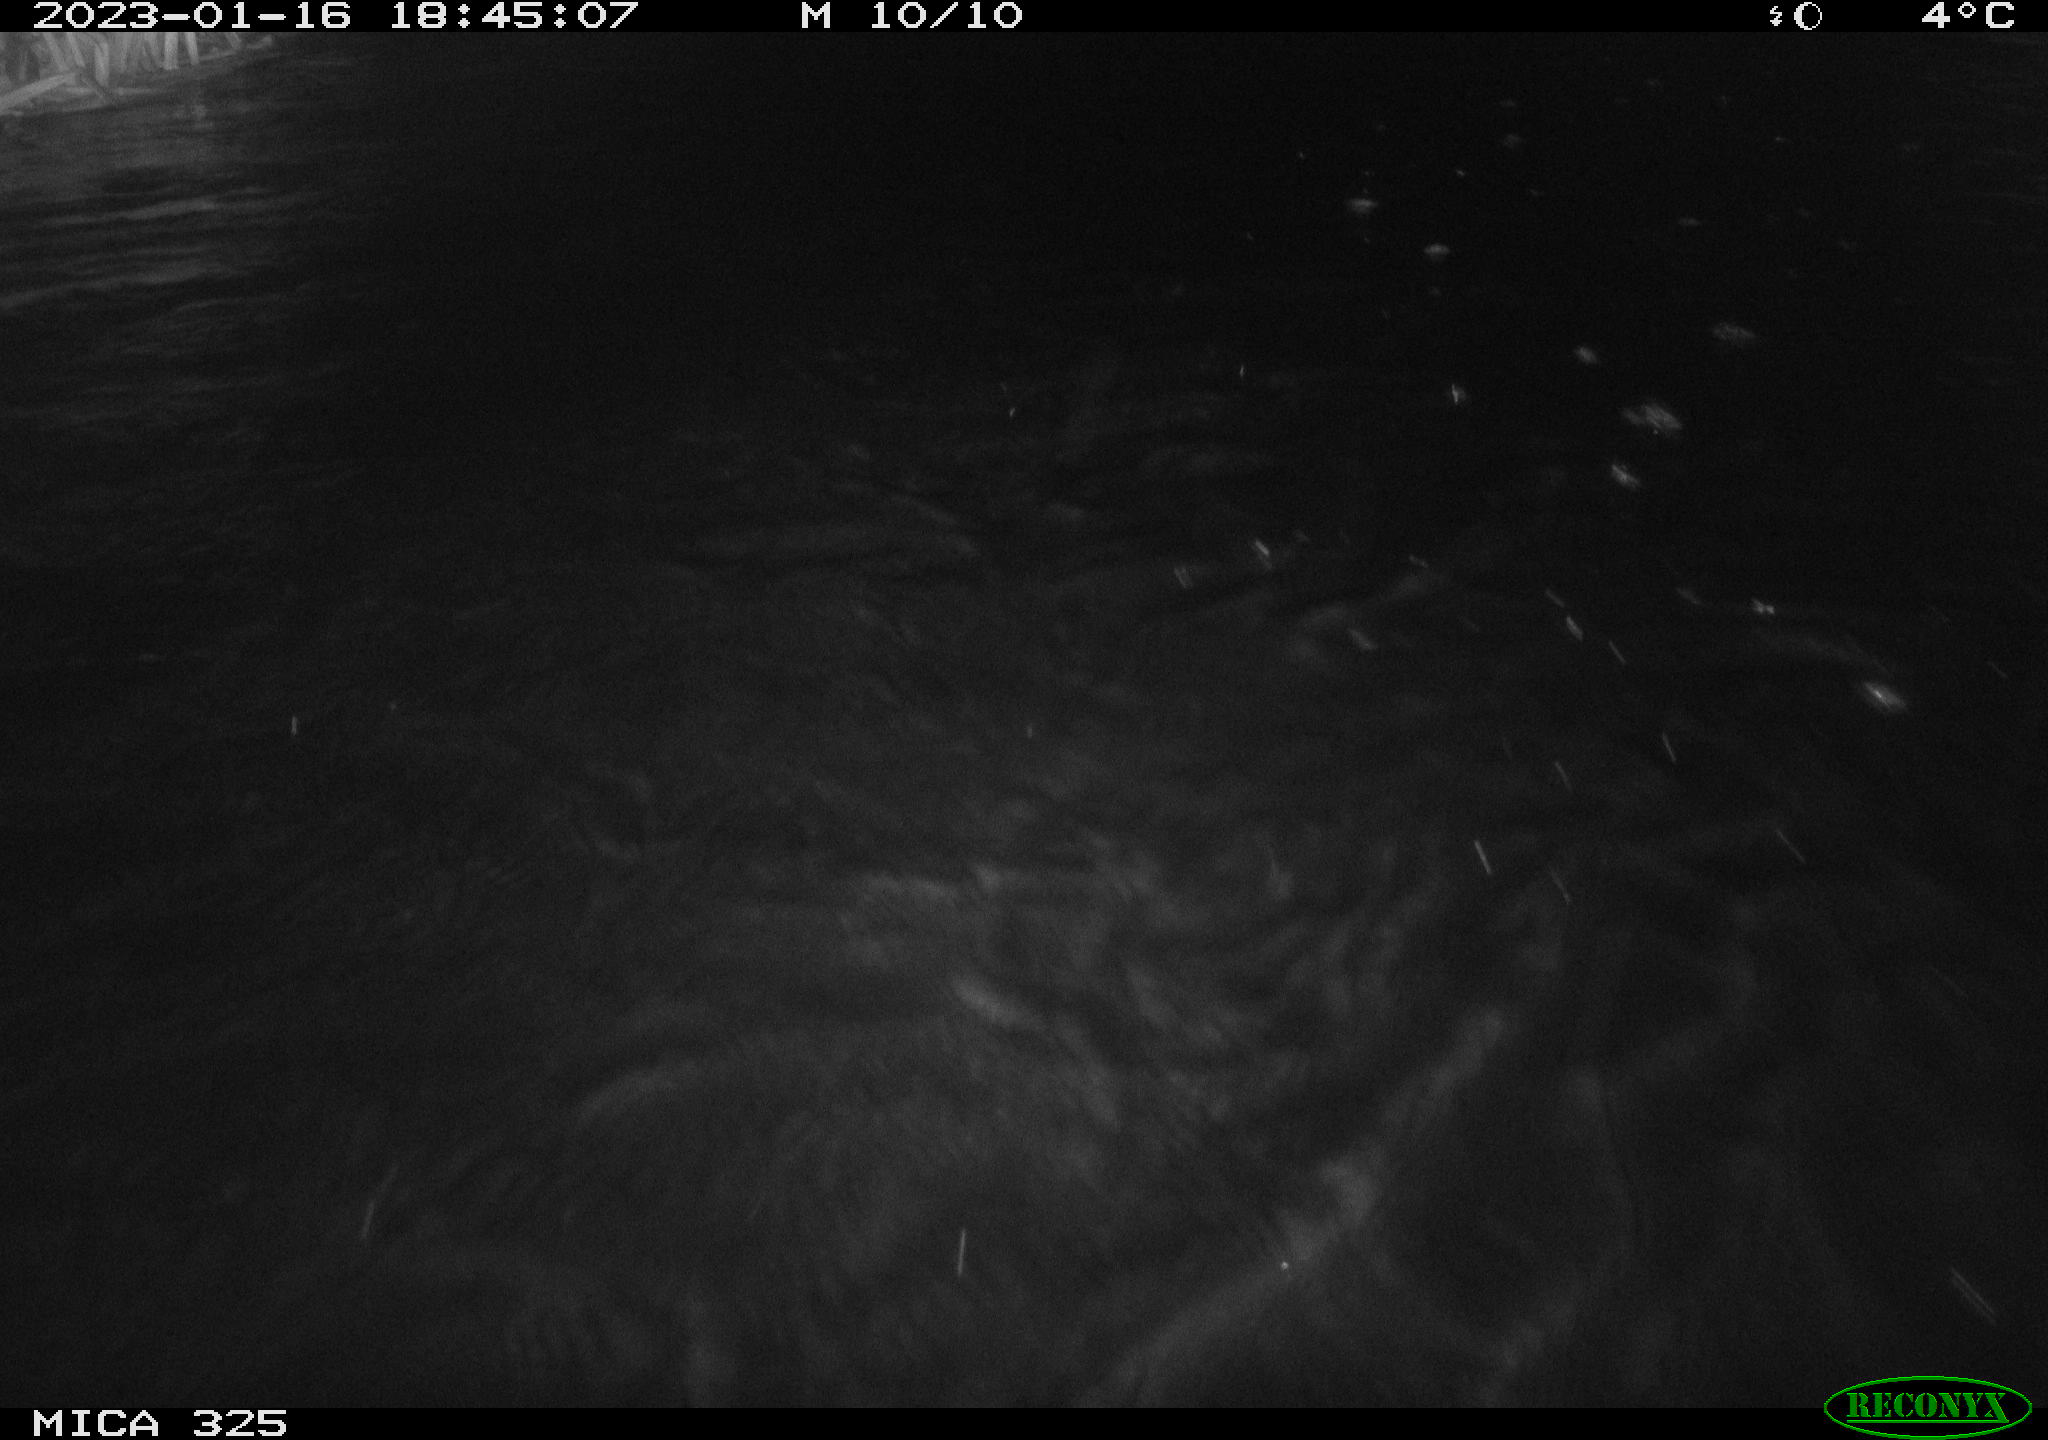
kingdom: Animalia
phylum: Chordata
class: Mammalia
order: Rodentia
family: Cricetidae
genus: Ondatra
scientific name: Ondatra zibethicus
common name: Muskrat
